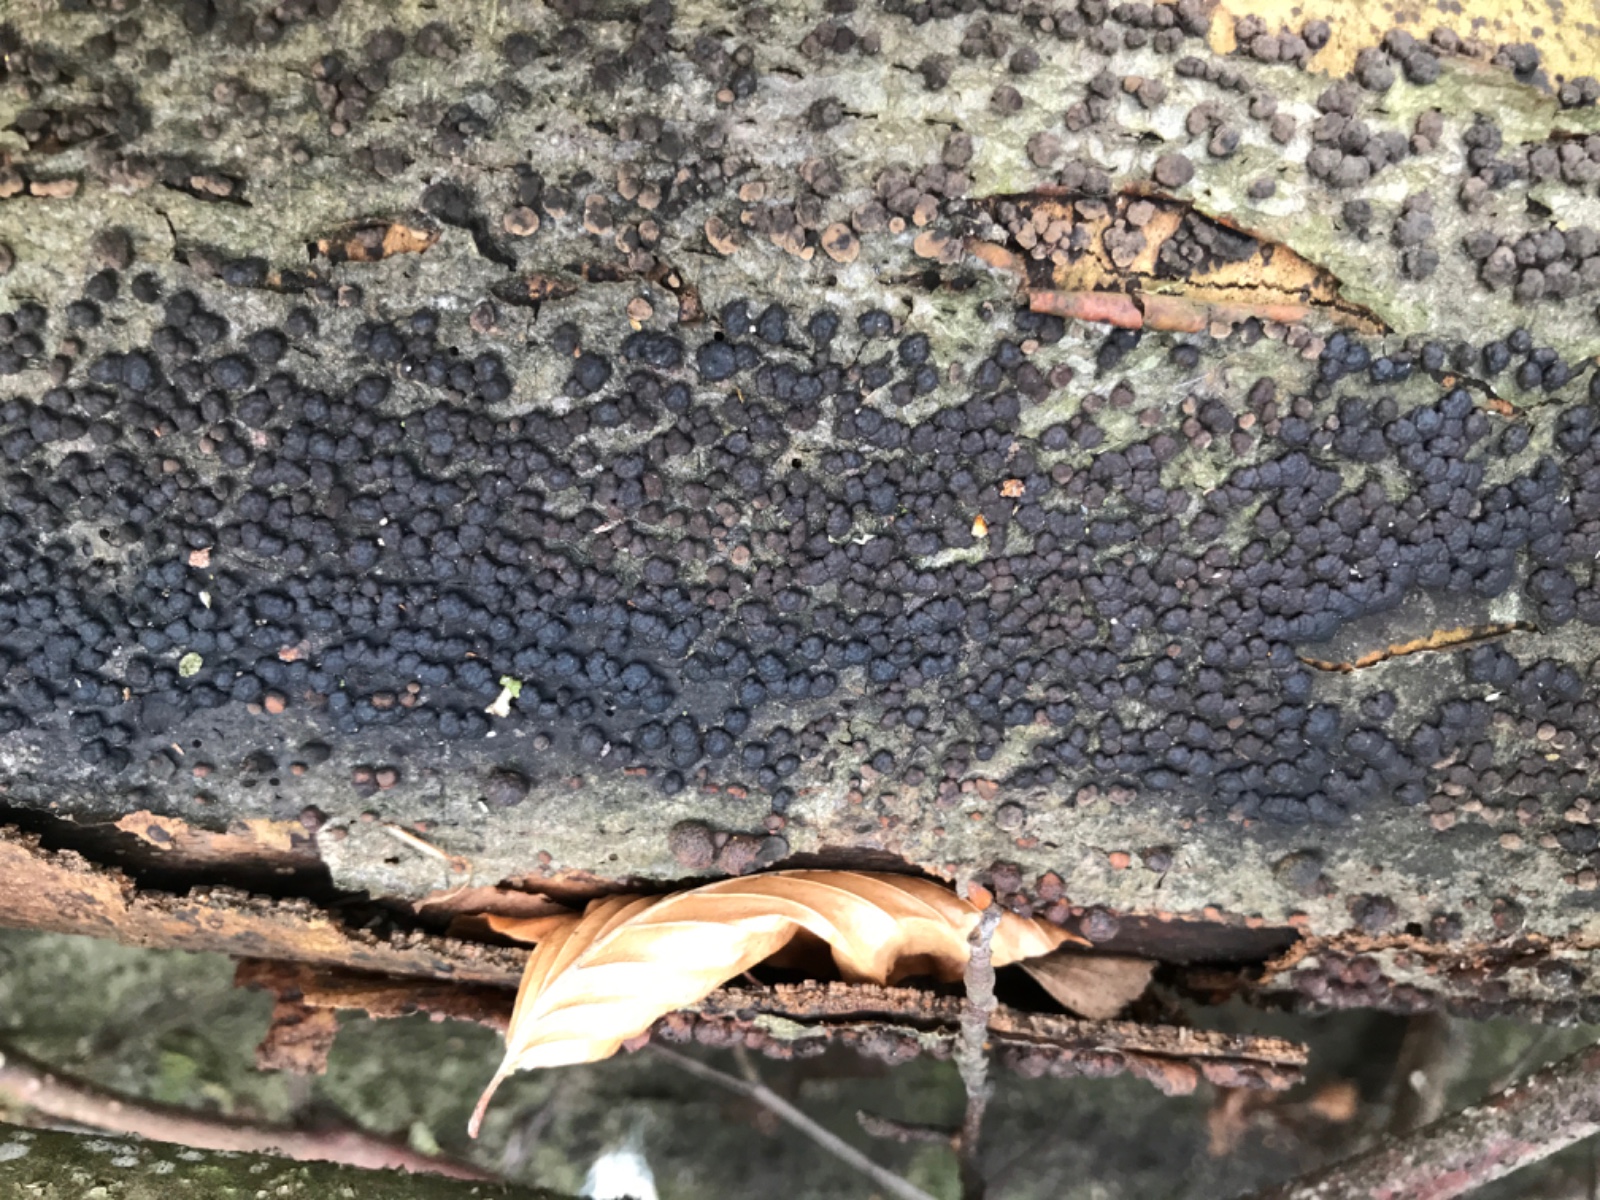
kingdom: Fungi
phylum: Ascomycota
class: Sordariomycetes
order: Xylariales
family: Hypoxylaceae
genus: Jackrogersella
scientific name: Jackrogersella cohaerens
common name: sammenflydende kulbær
